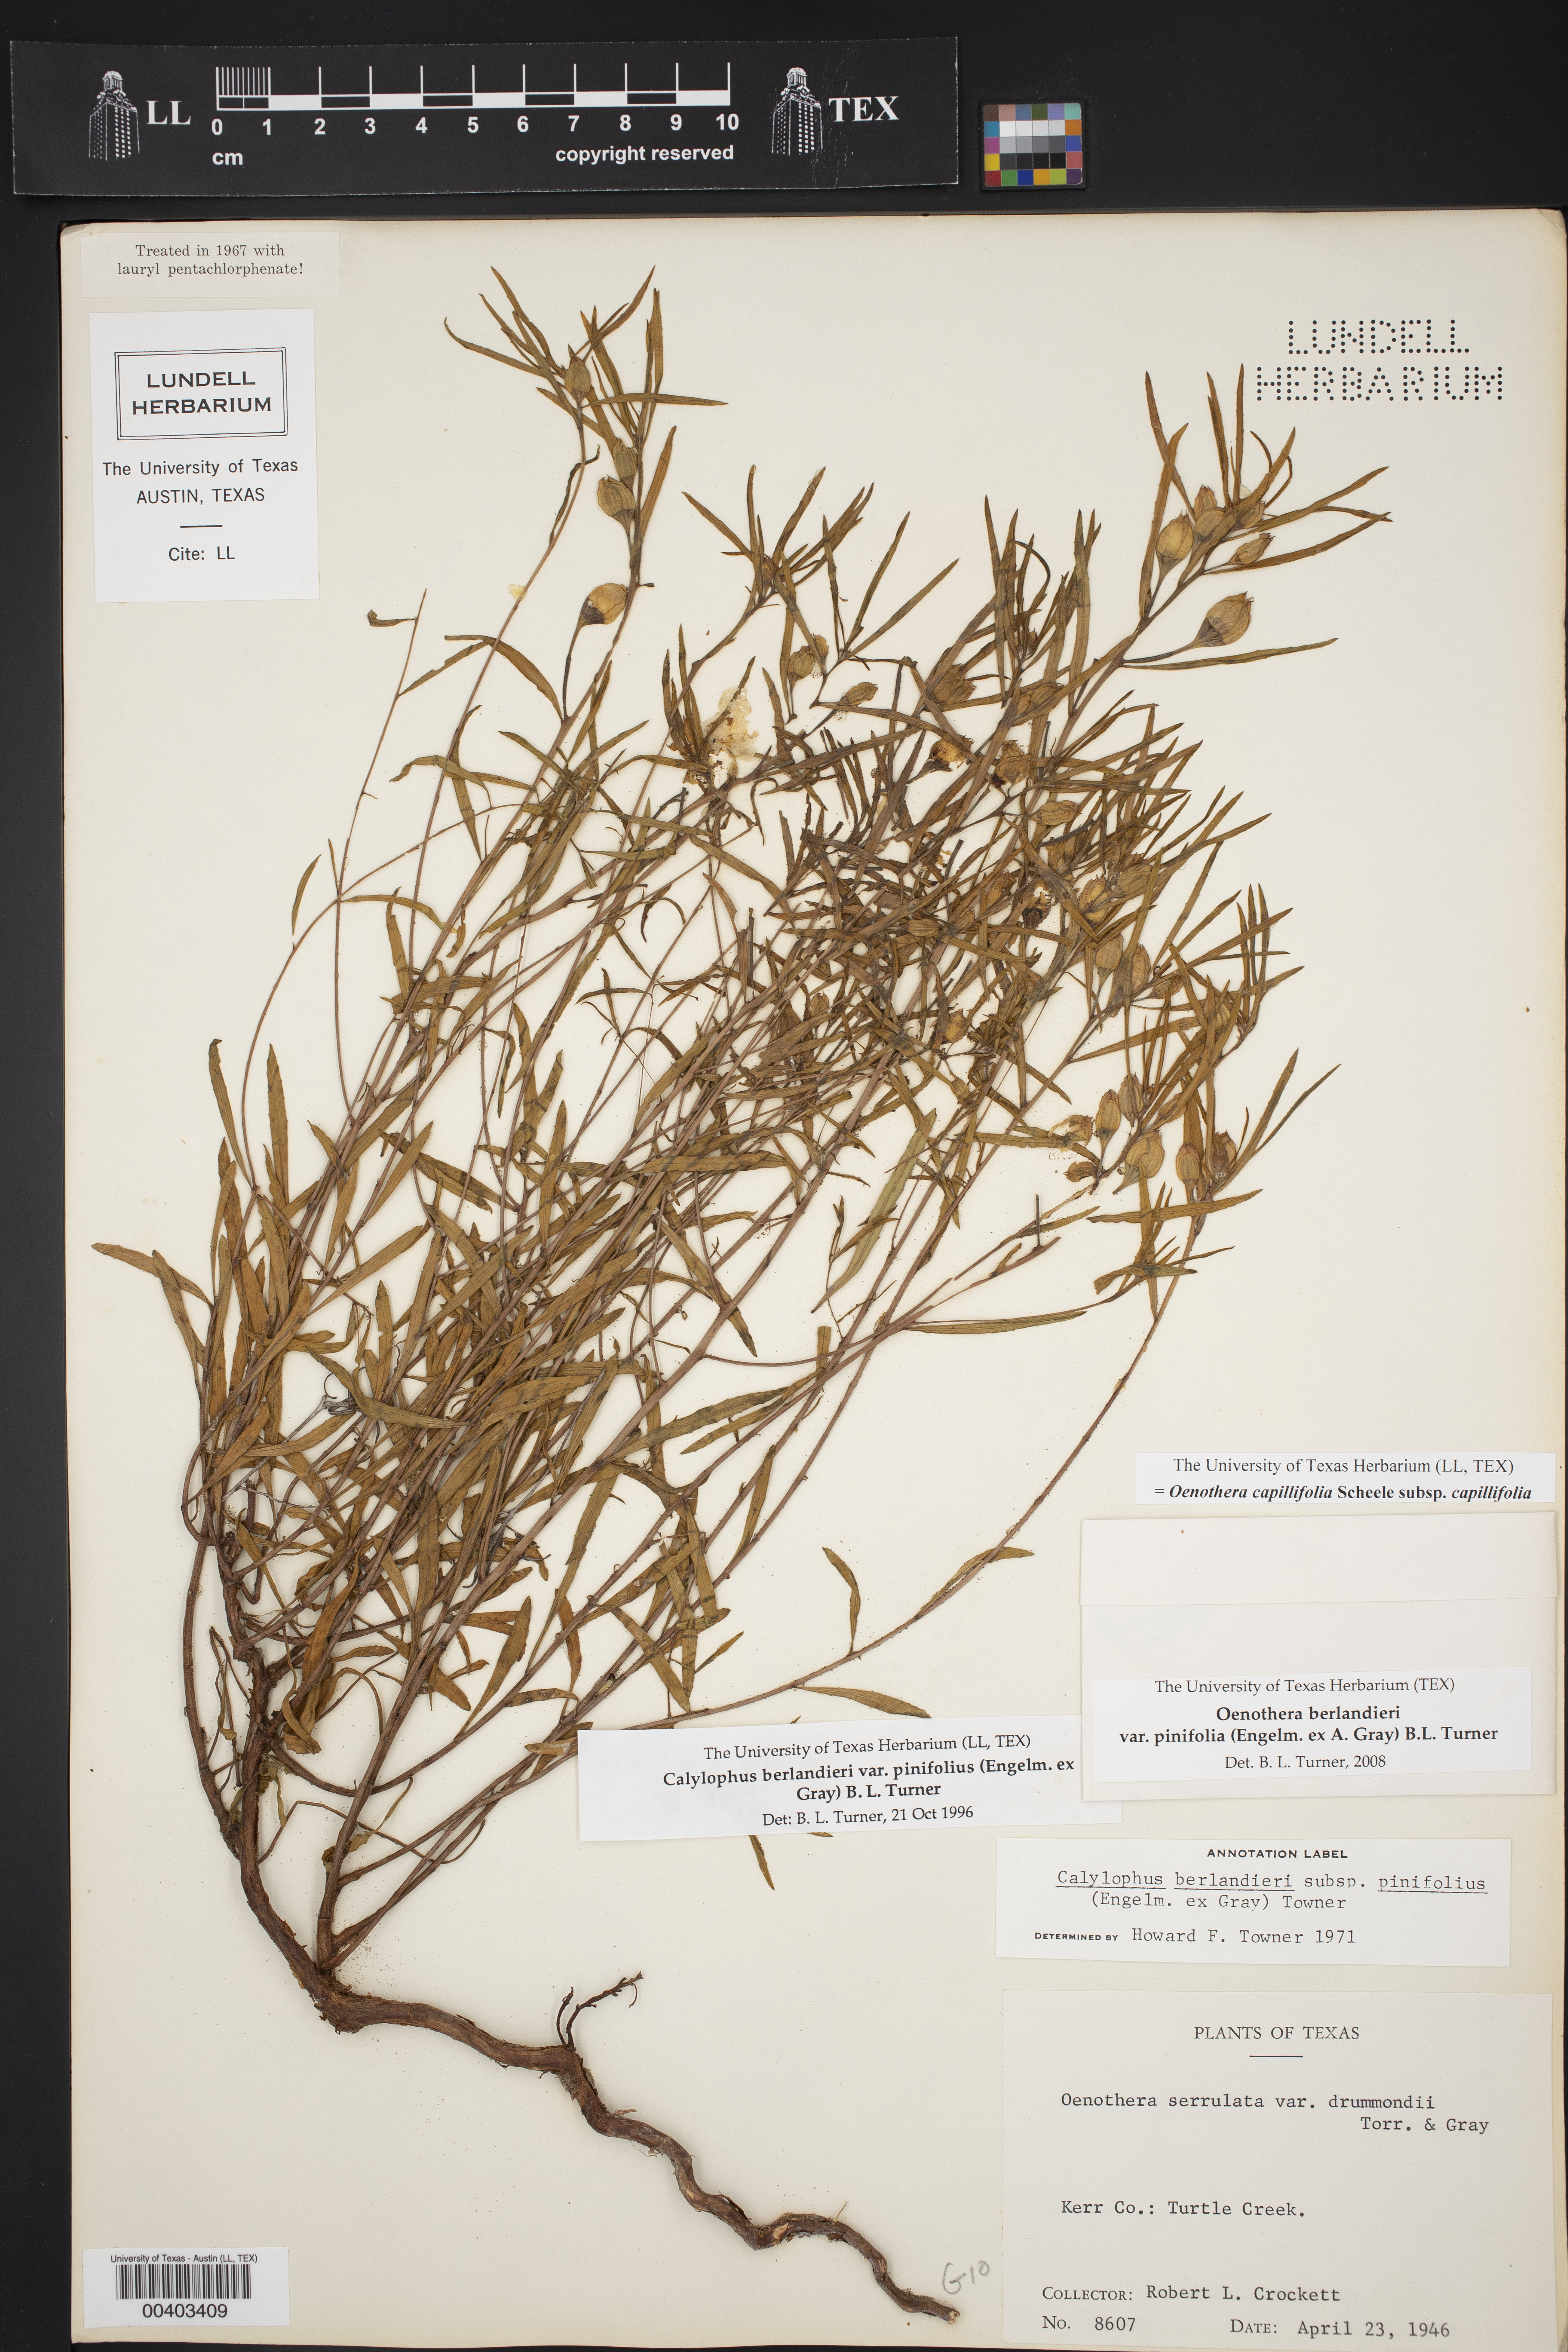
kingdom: Plantae
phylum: Tracheophyta
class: Magnoliopsida
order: Myrtales
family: Onagraceae
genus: Oenothera
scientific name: Oenothera capillifolia
